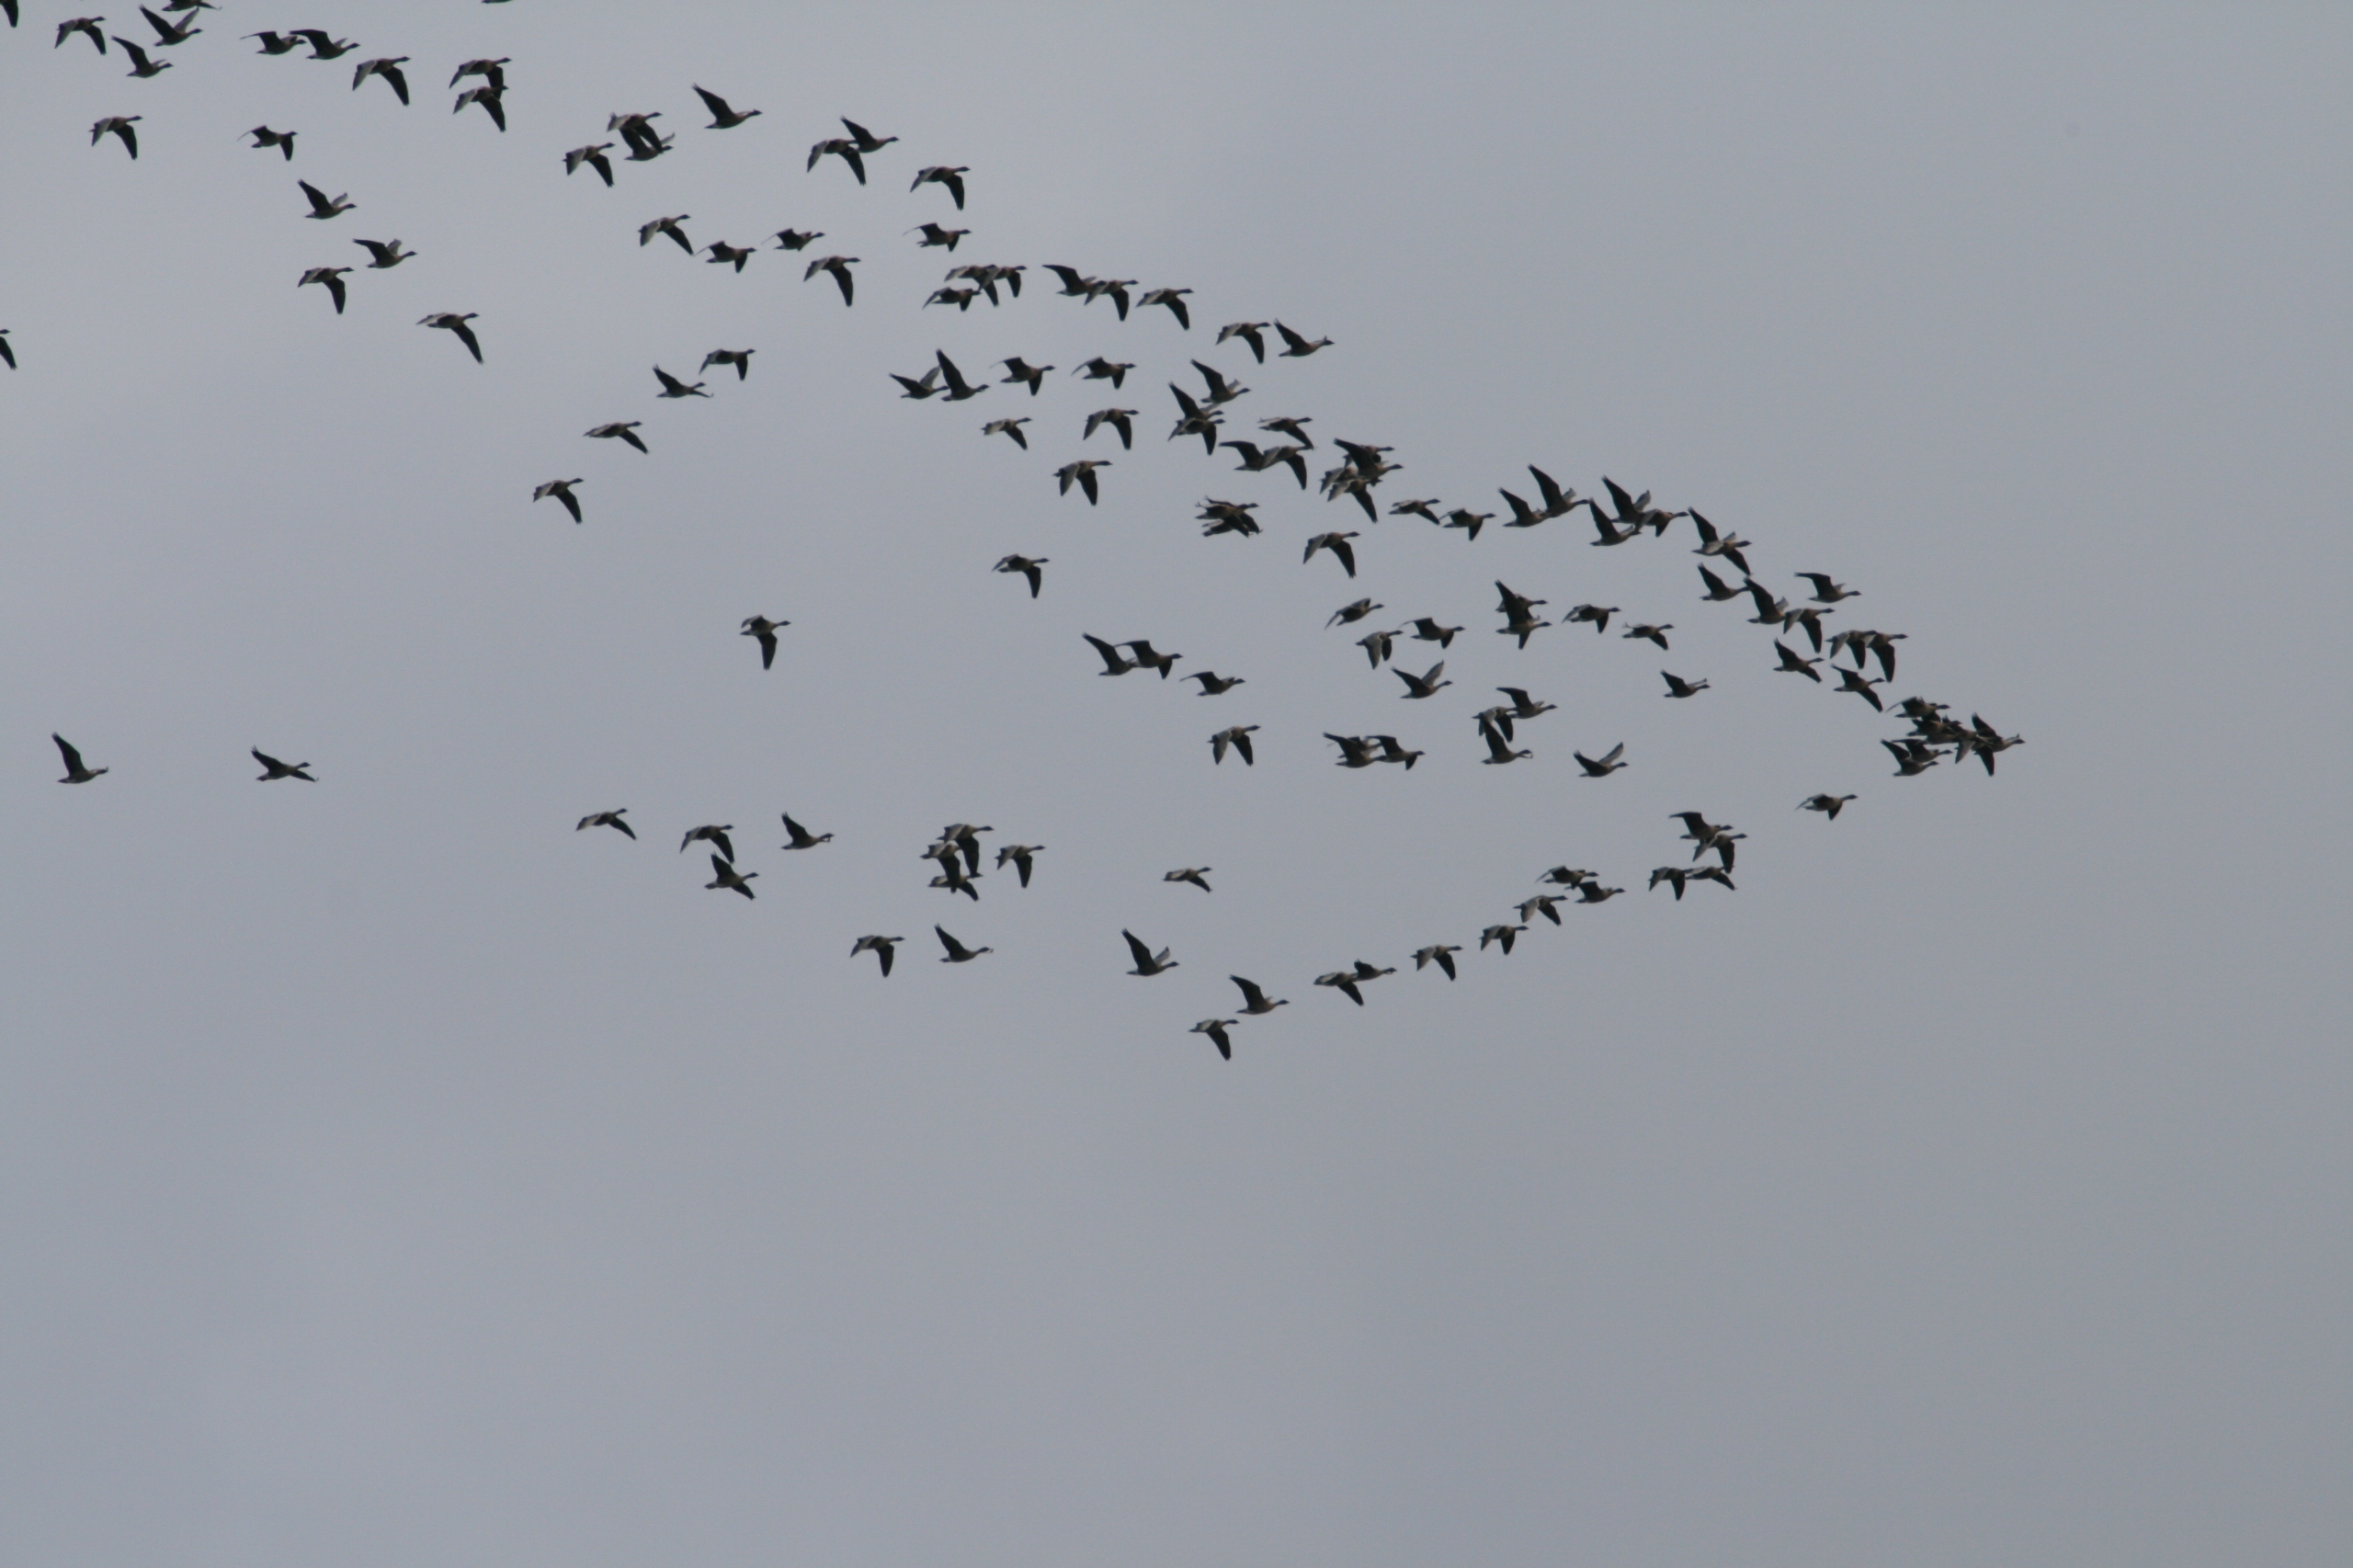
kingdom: Animalia
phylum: Chordata
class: Aves
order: Anseriformes
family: Anatidae
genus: Anser
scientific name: Anser anser
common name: Grågås
